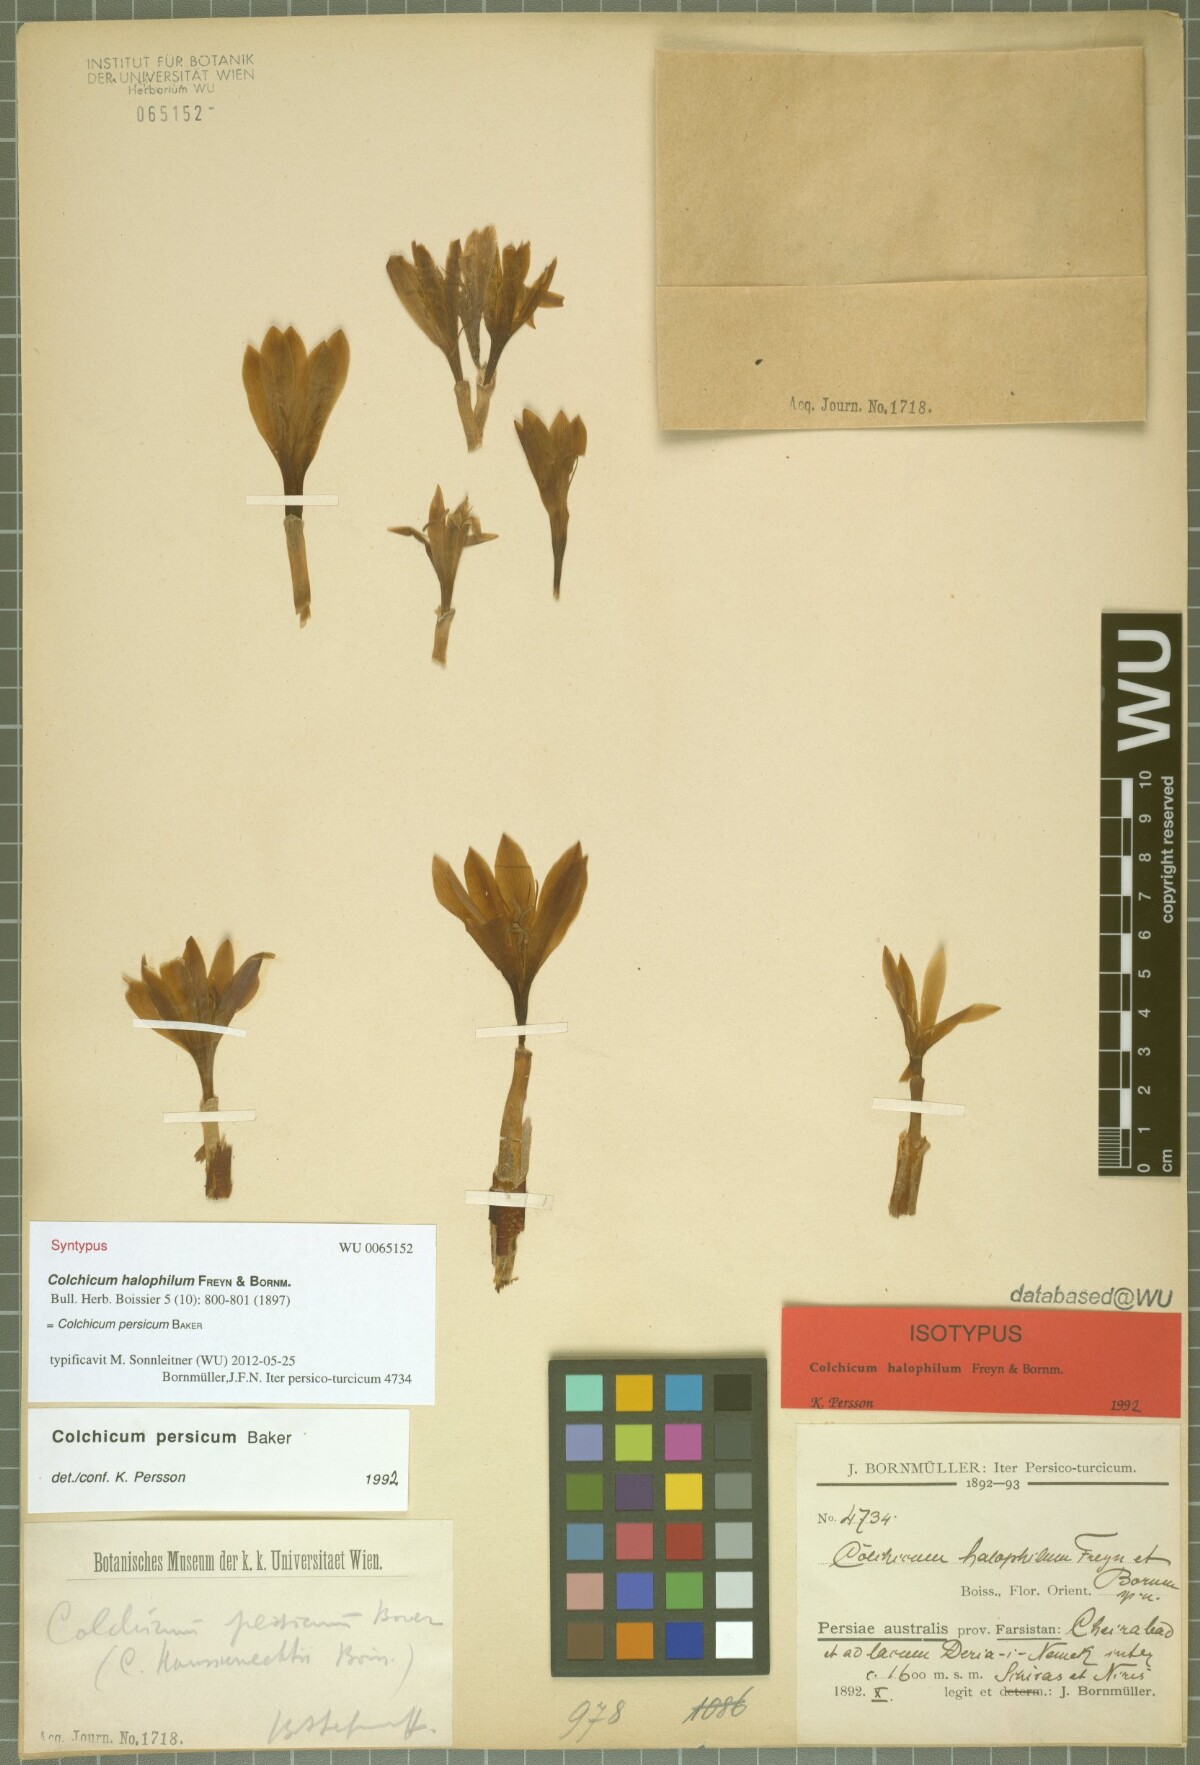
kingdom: Plantae
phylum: Tracheophyta
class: Liliopsida
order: Liliales
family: Colchicaceae
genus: Colchicum
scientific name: Colchicum persicum
